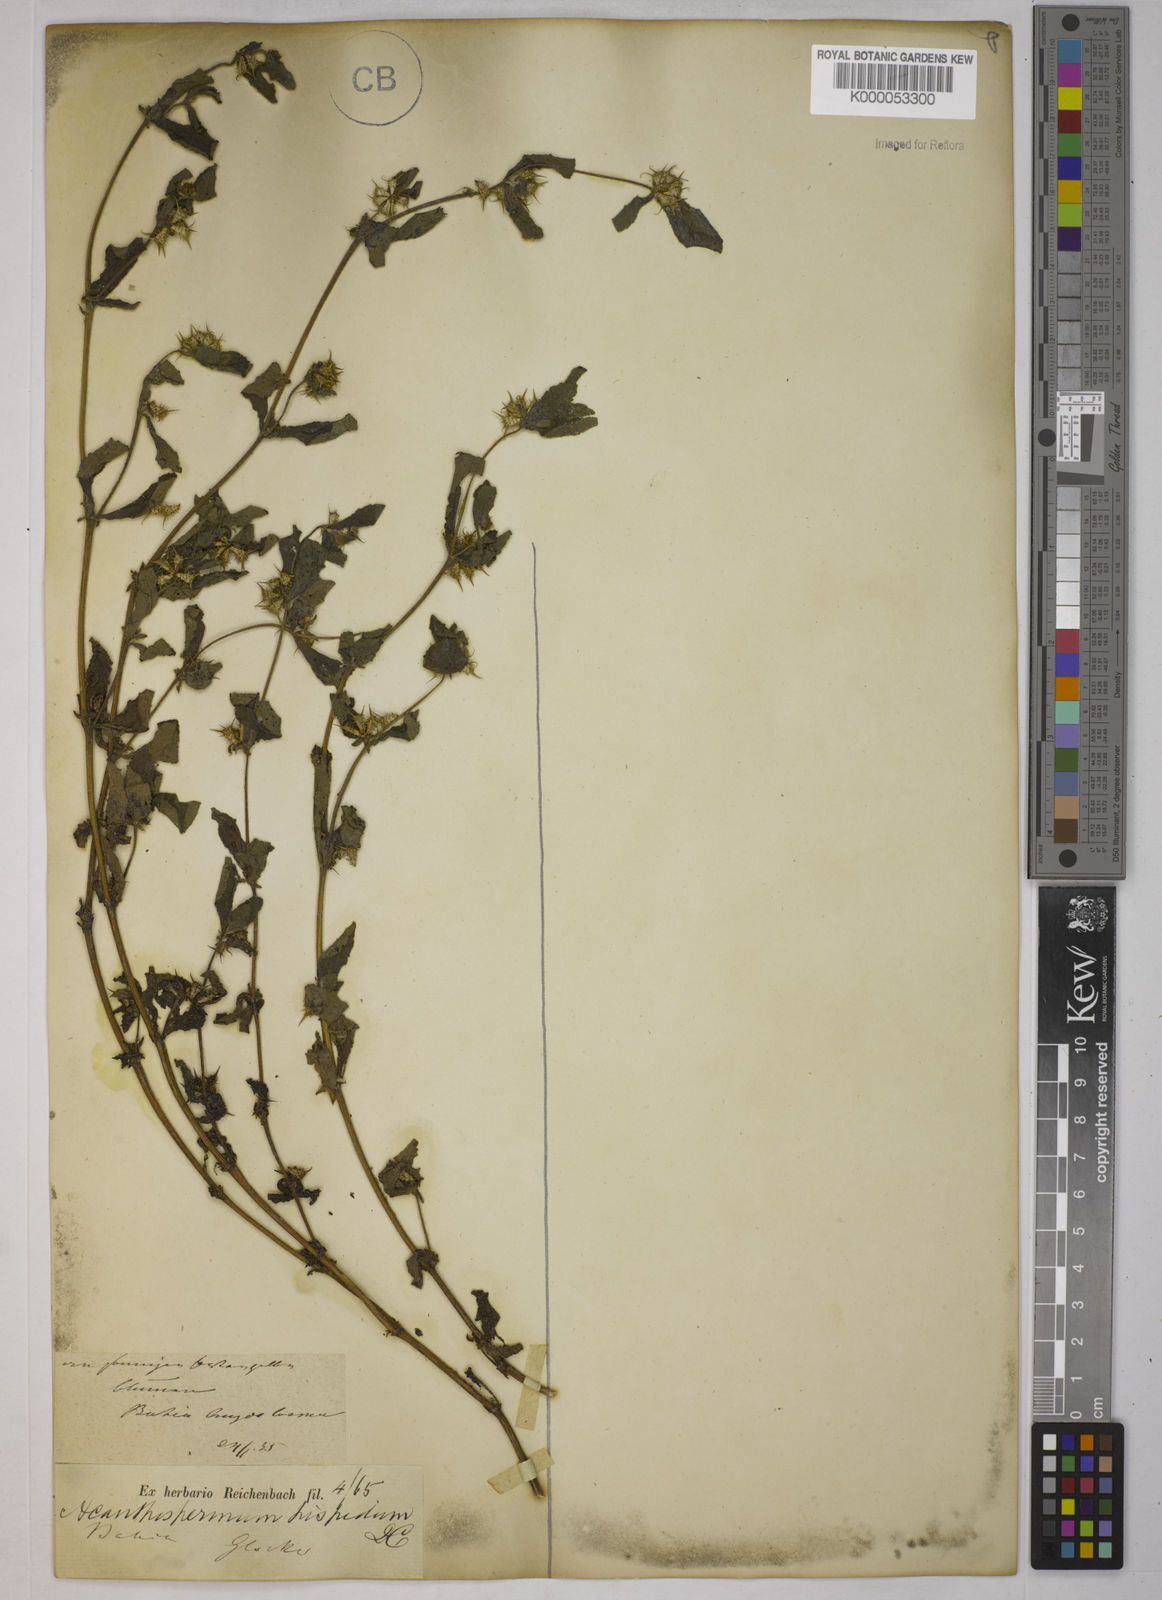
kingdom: Plantae
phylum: Tracheophyta
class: Magnoliopsida
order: Asterales
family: Asteraceae
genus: Acanthospermum
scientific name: Acanthospermum hispidum
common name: Hispid starbur
